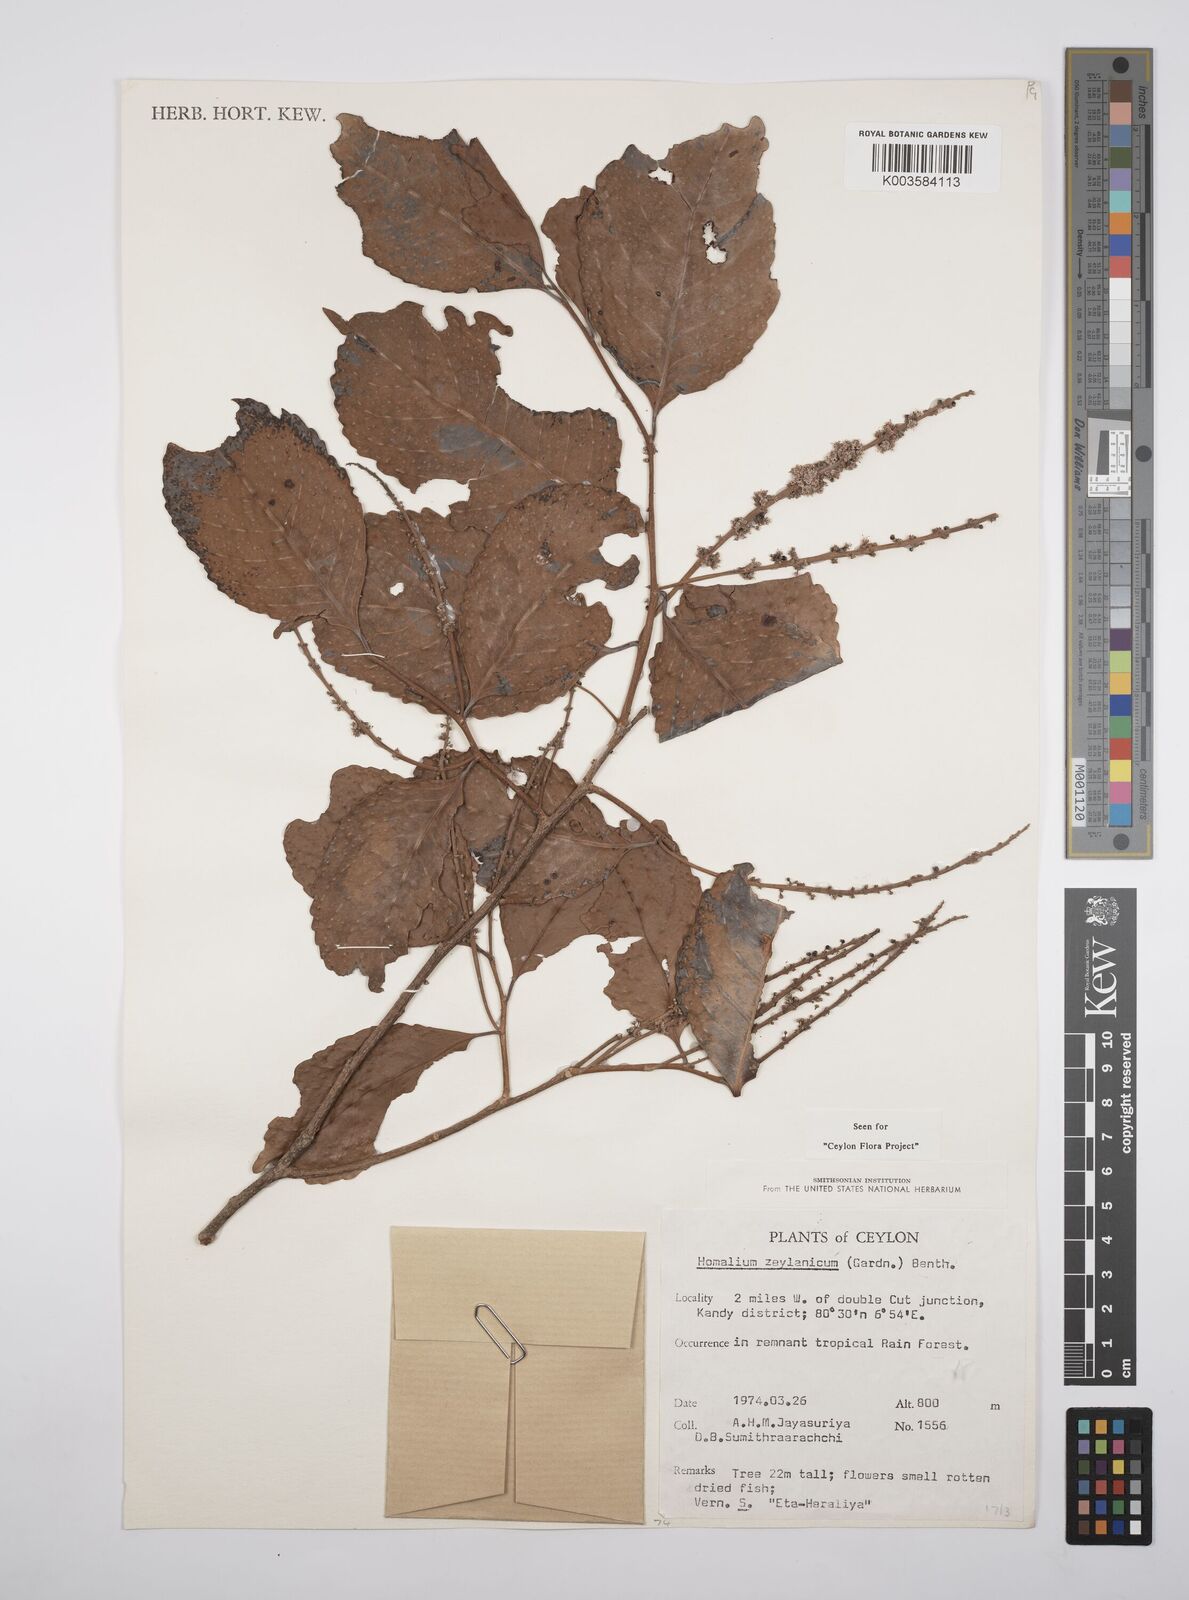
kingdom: Plantae
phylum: Tracheophyta
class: Magnoliopsida
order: Malpighiales
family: Salicaceae
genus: Homalium
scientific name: Homalium ceylanicum
